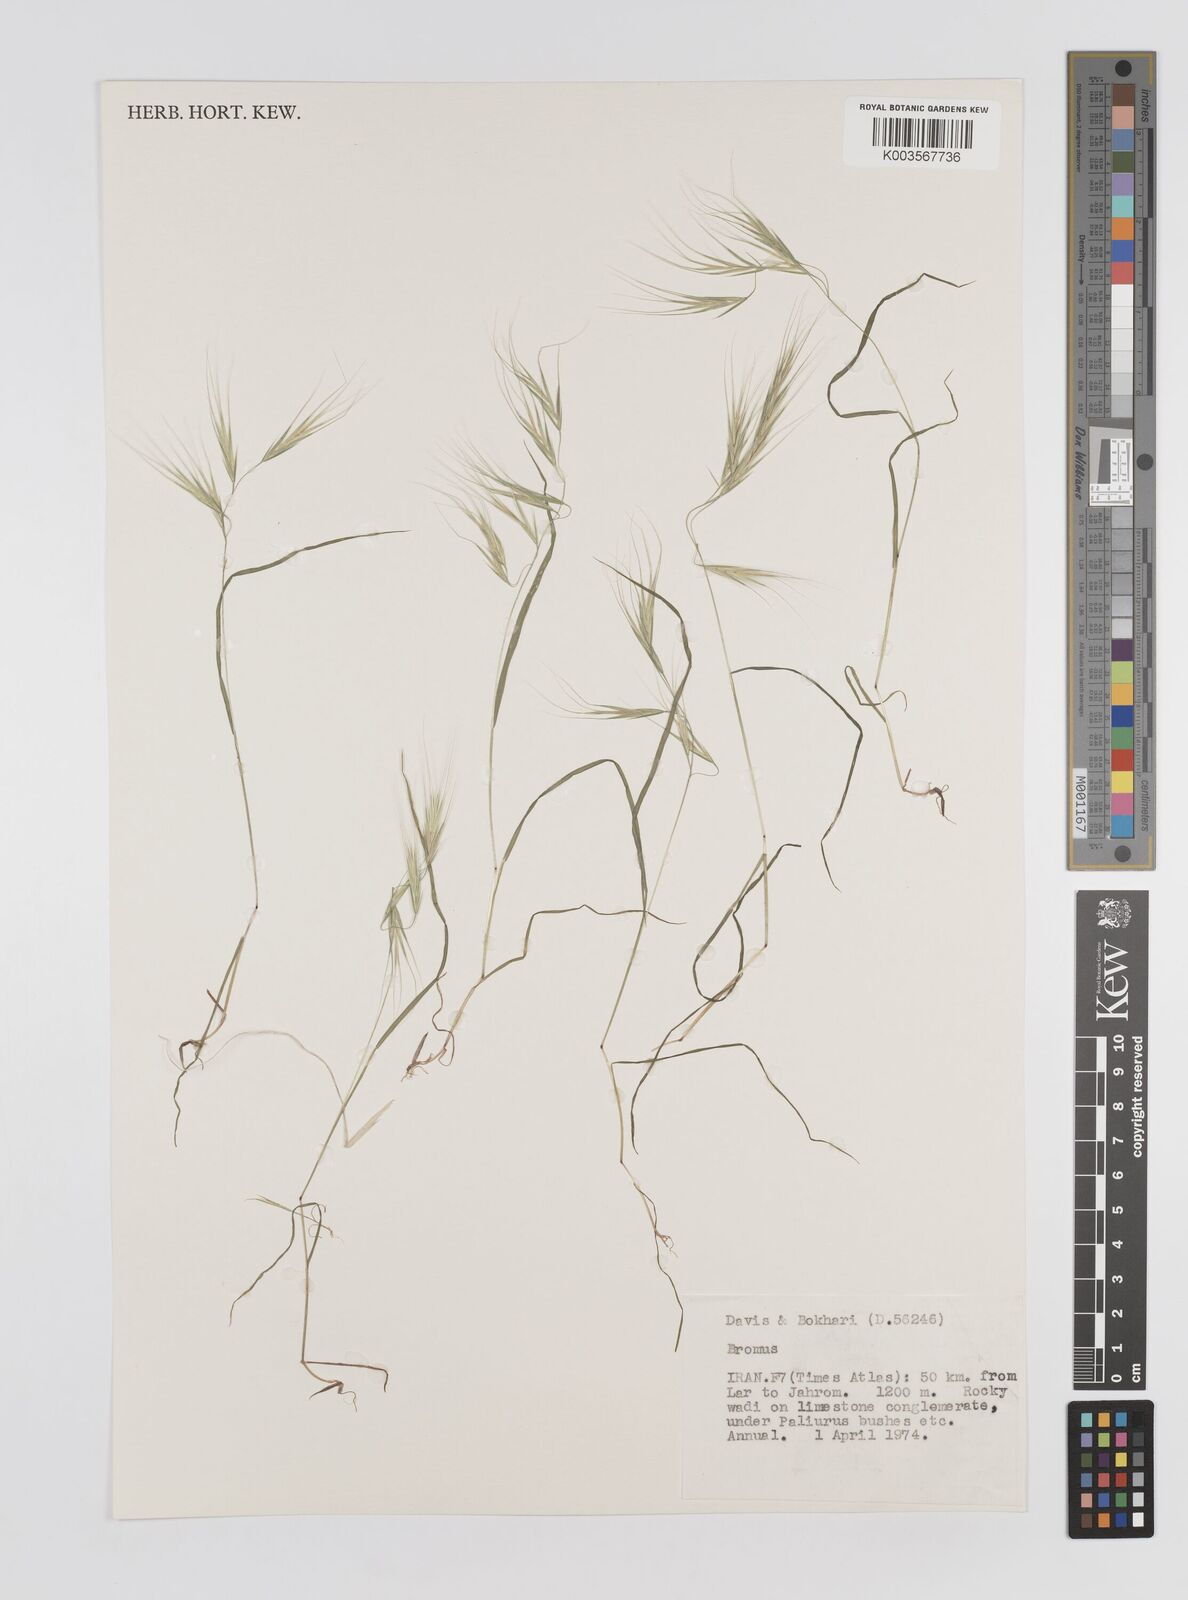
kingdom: Plantae
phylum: Tracheophyta
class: Liliopsida
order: Poales
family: Poaceae
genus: Bromus
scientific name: Bromus
